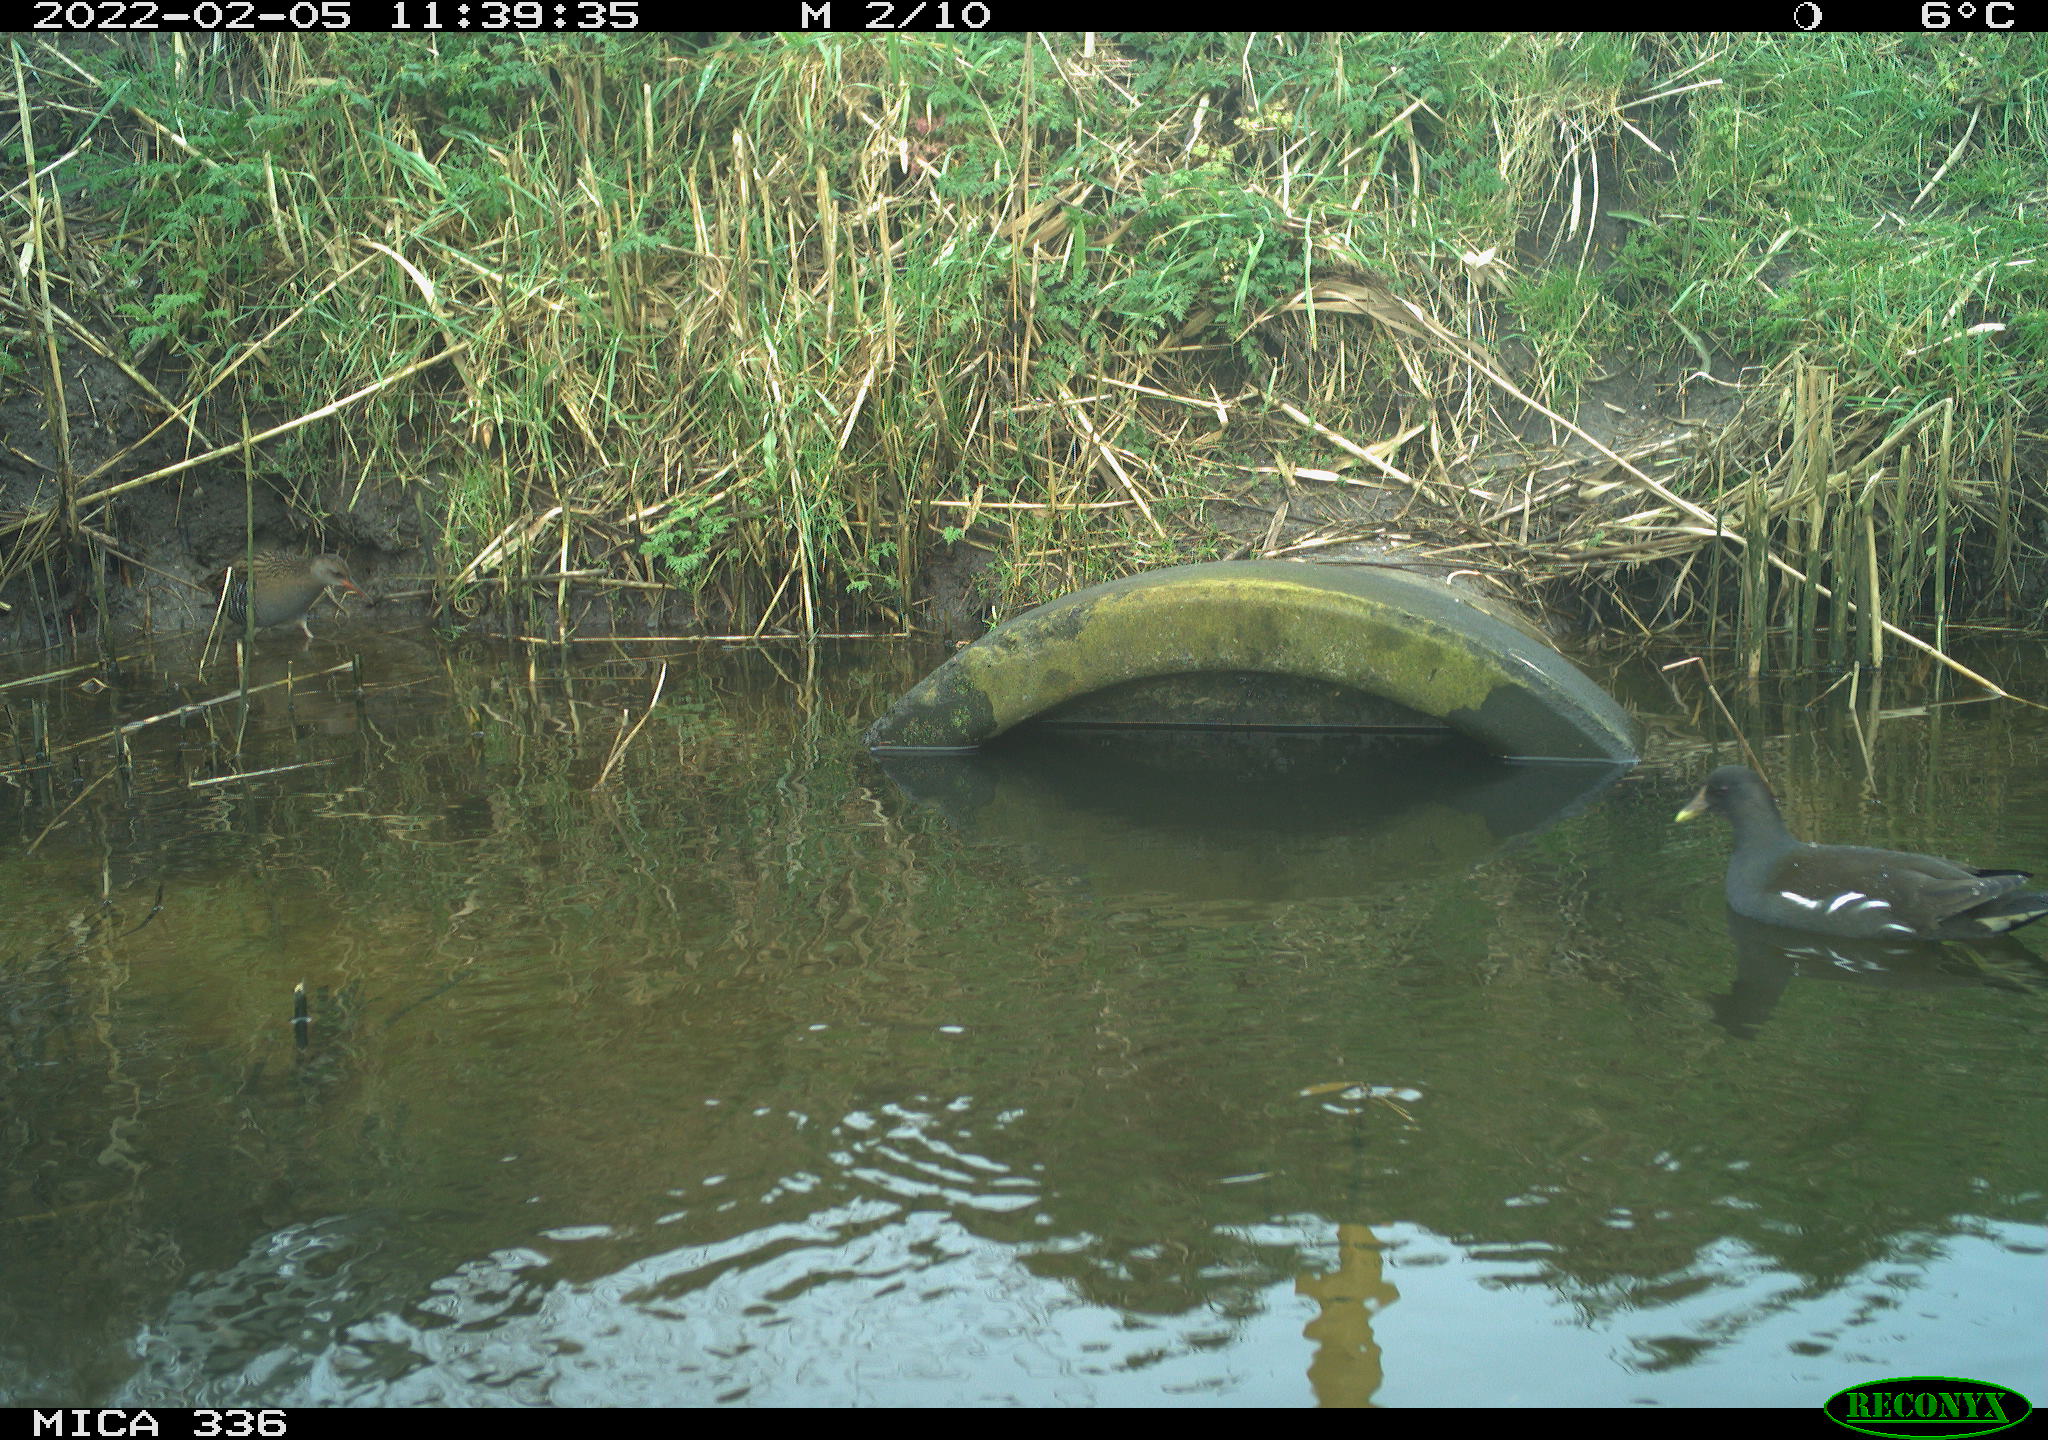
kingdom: Animalia
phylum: Chordata
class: Aves
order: Gruiformes
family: Rallidae
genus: Gallinula
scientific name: Gallinula chloropus
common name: Common moorhen
